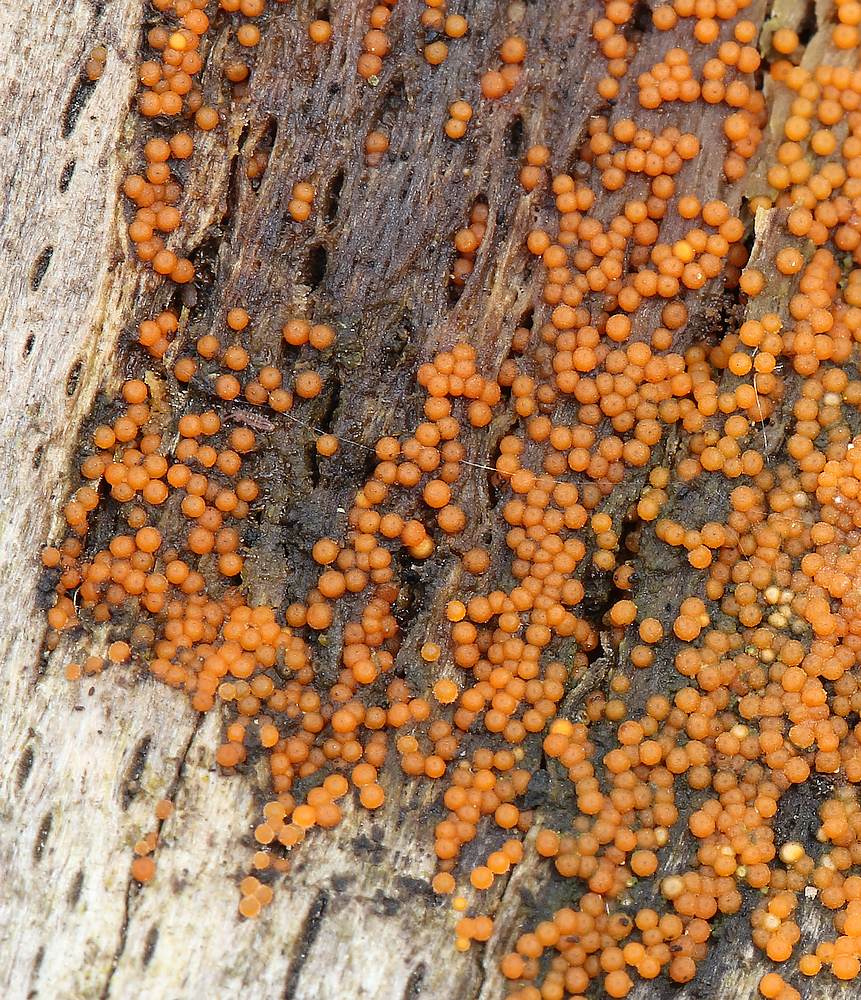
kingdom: Fungi
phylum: Ascomycota
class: Sordariomycetes
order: Hypocreales
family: Nectriaceae
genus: Hydropisphaera
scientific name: Hydropisphaera peziza
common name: skålformet gyldenkerne
